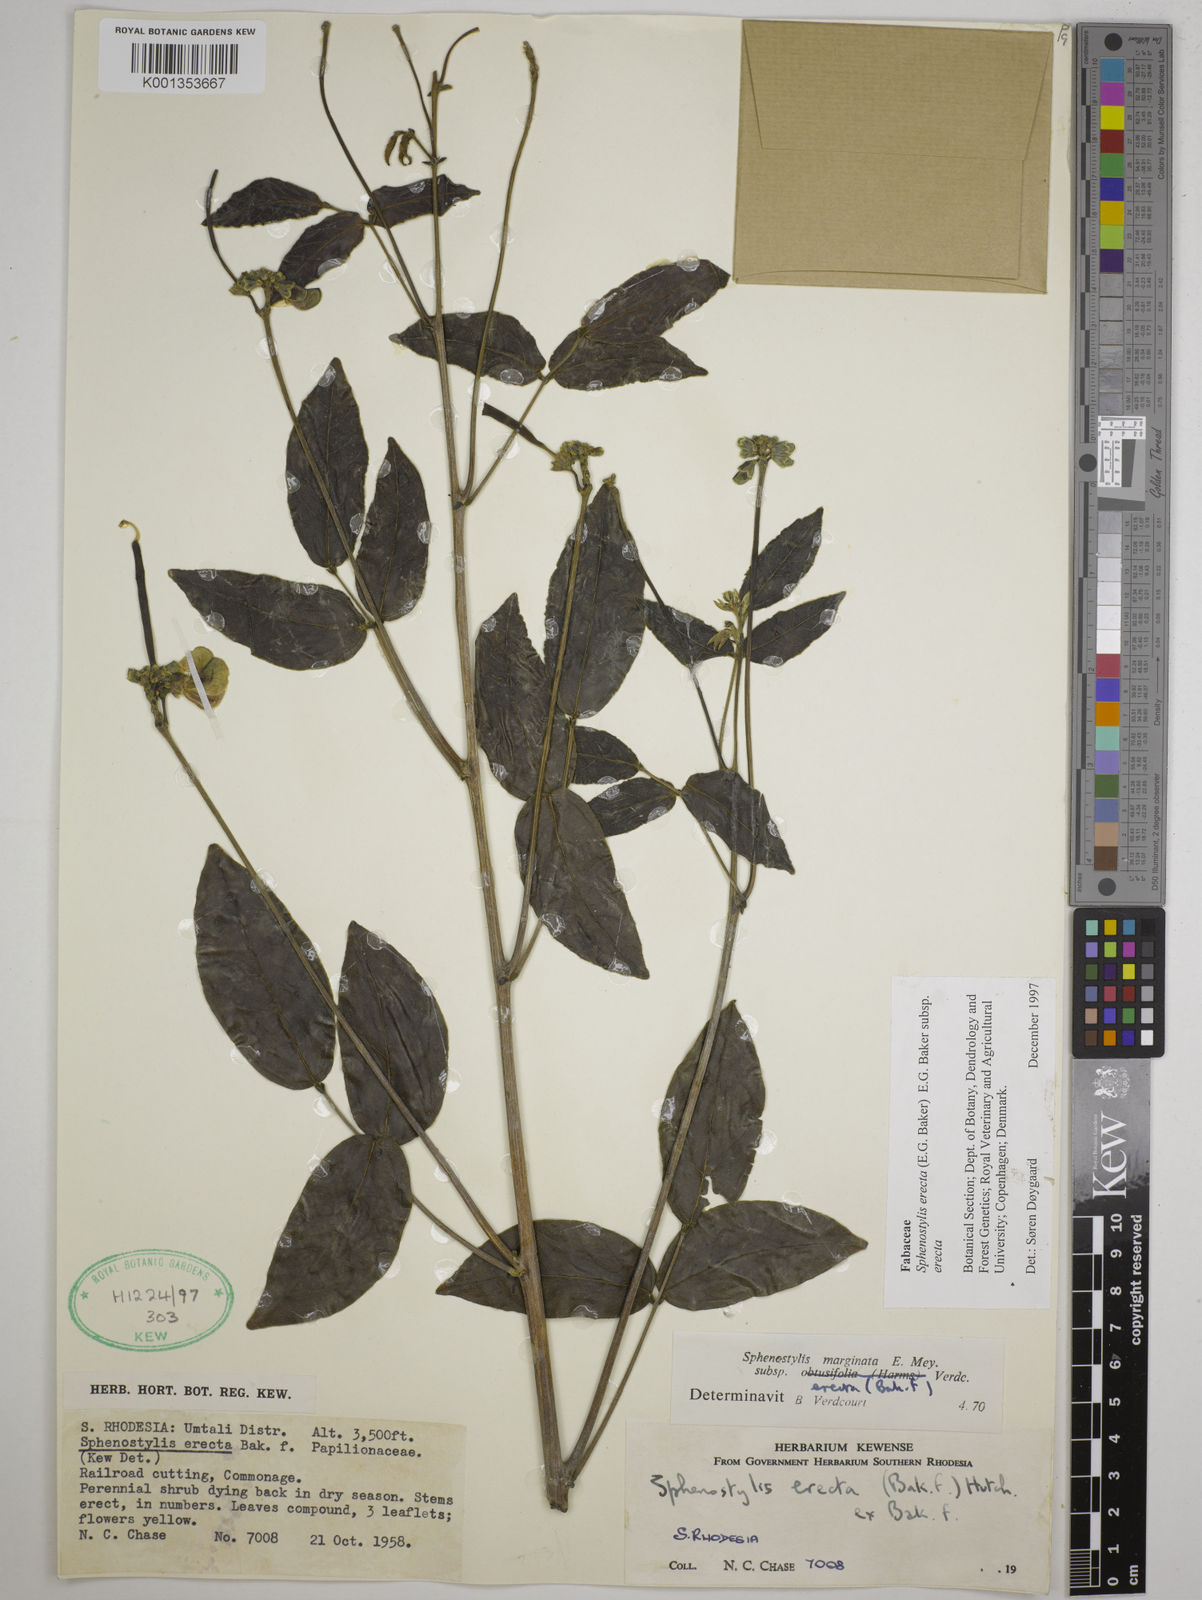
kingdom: Plantae
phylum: Tracheophyta
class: Magnoliopsida
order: Fabales
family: Fabaceae
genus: Sphenostylis
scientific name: Sphenostylis erecta
